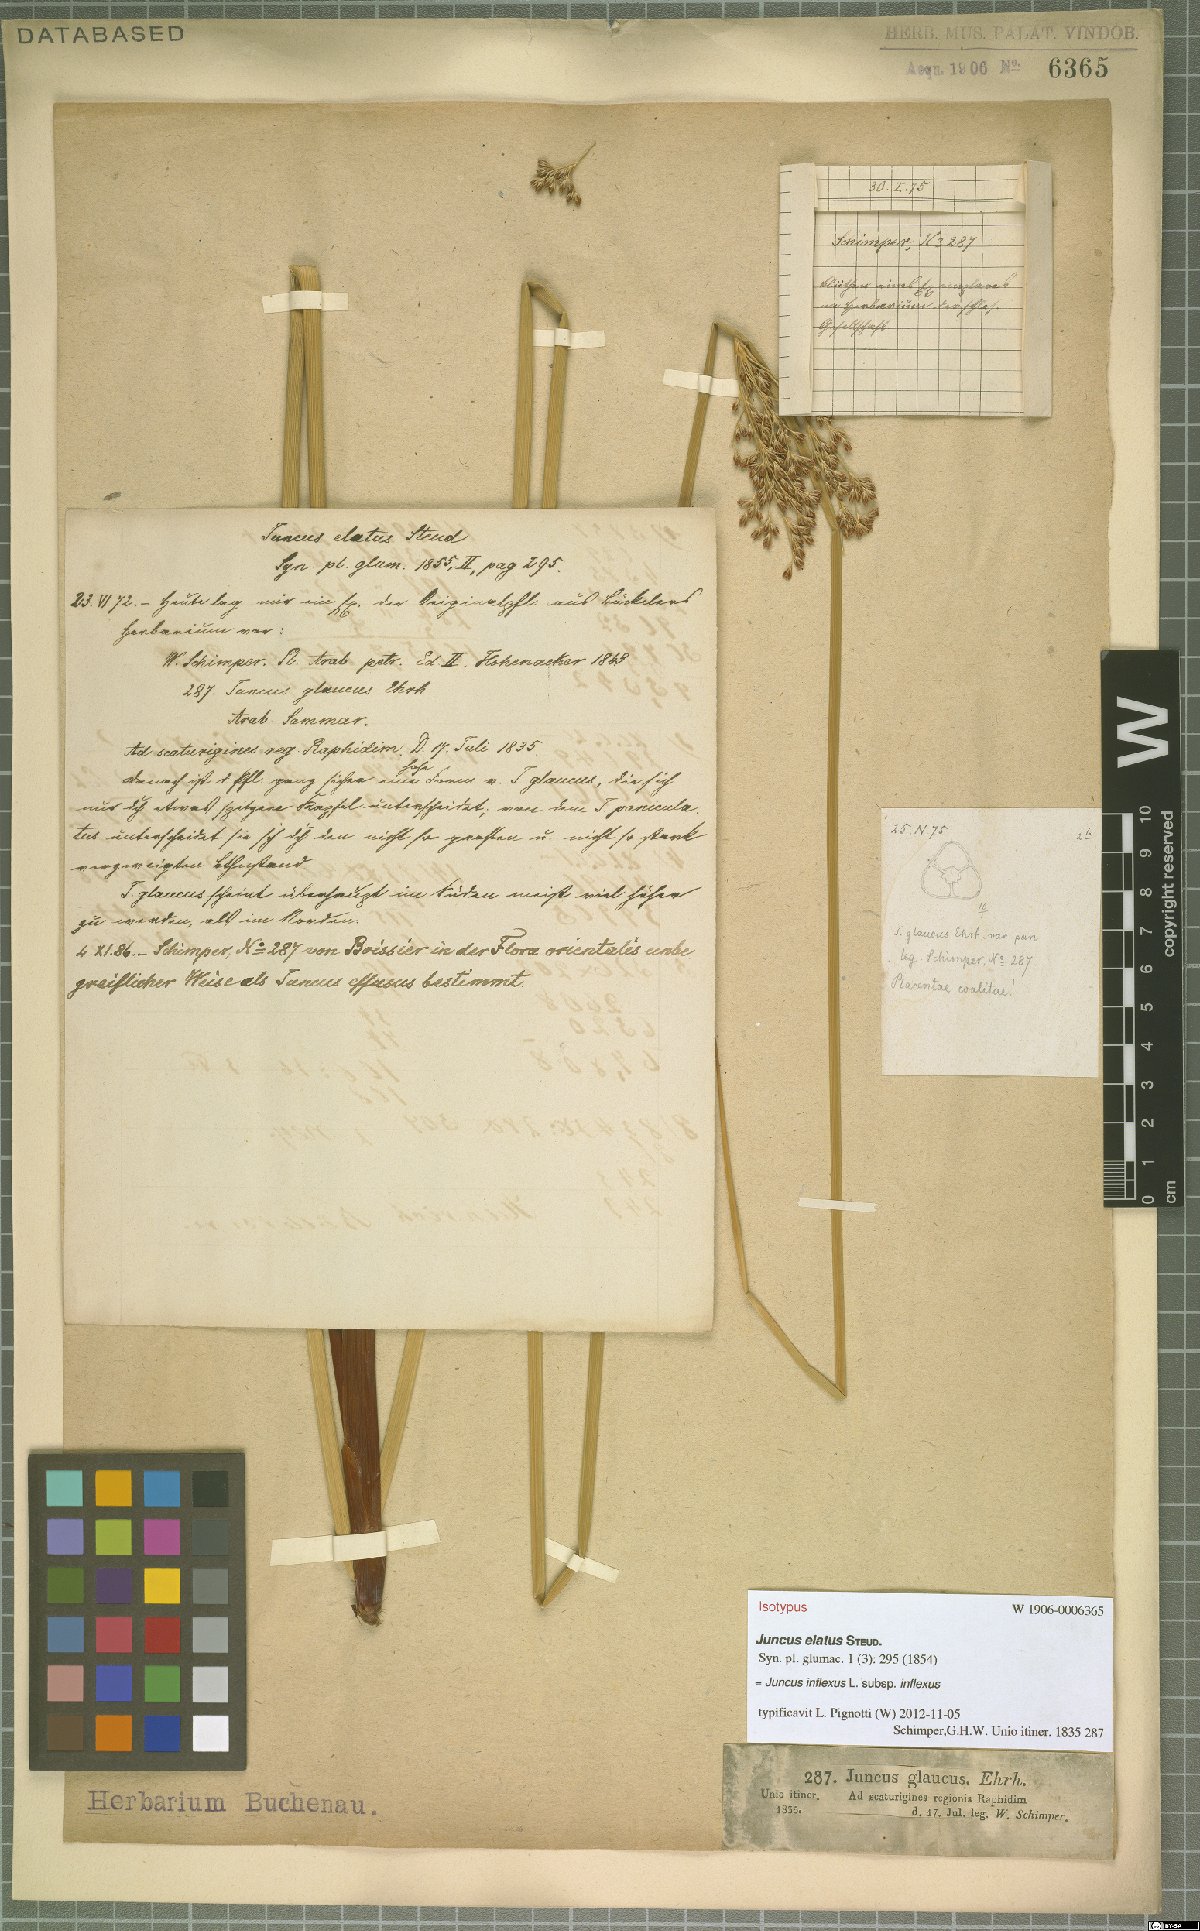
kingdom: Plantae
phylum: Tracheophyta
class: Liliopsida
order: Poales
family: Juncaceae
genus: Juncus
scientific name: Juncus inflexus
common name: Hard rush
